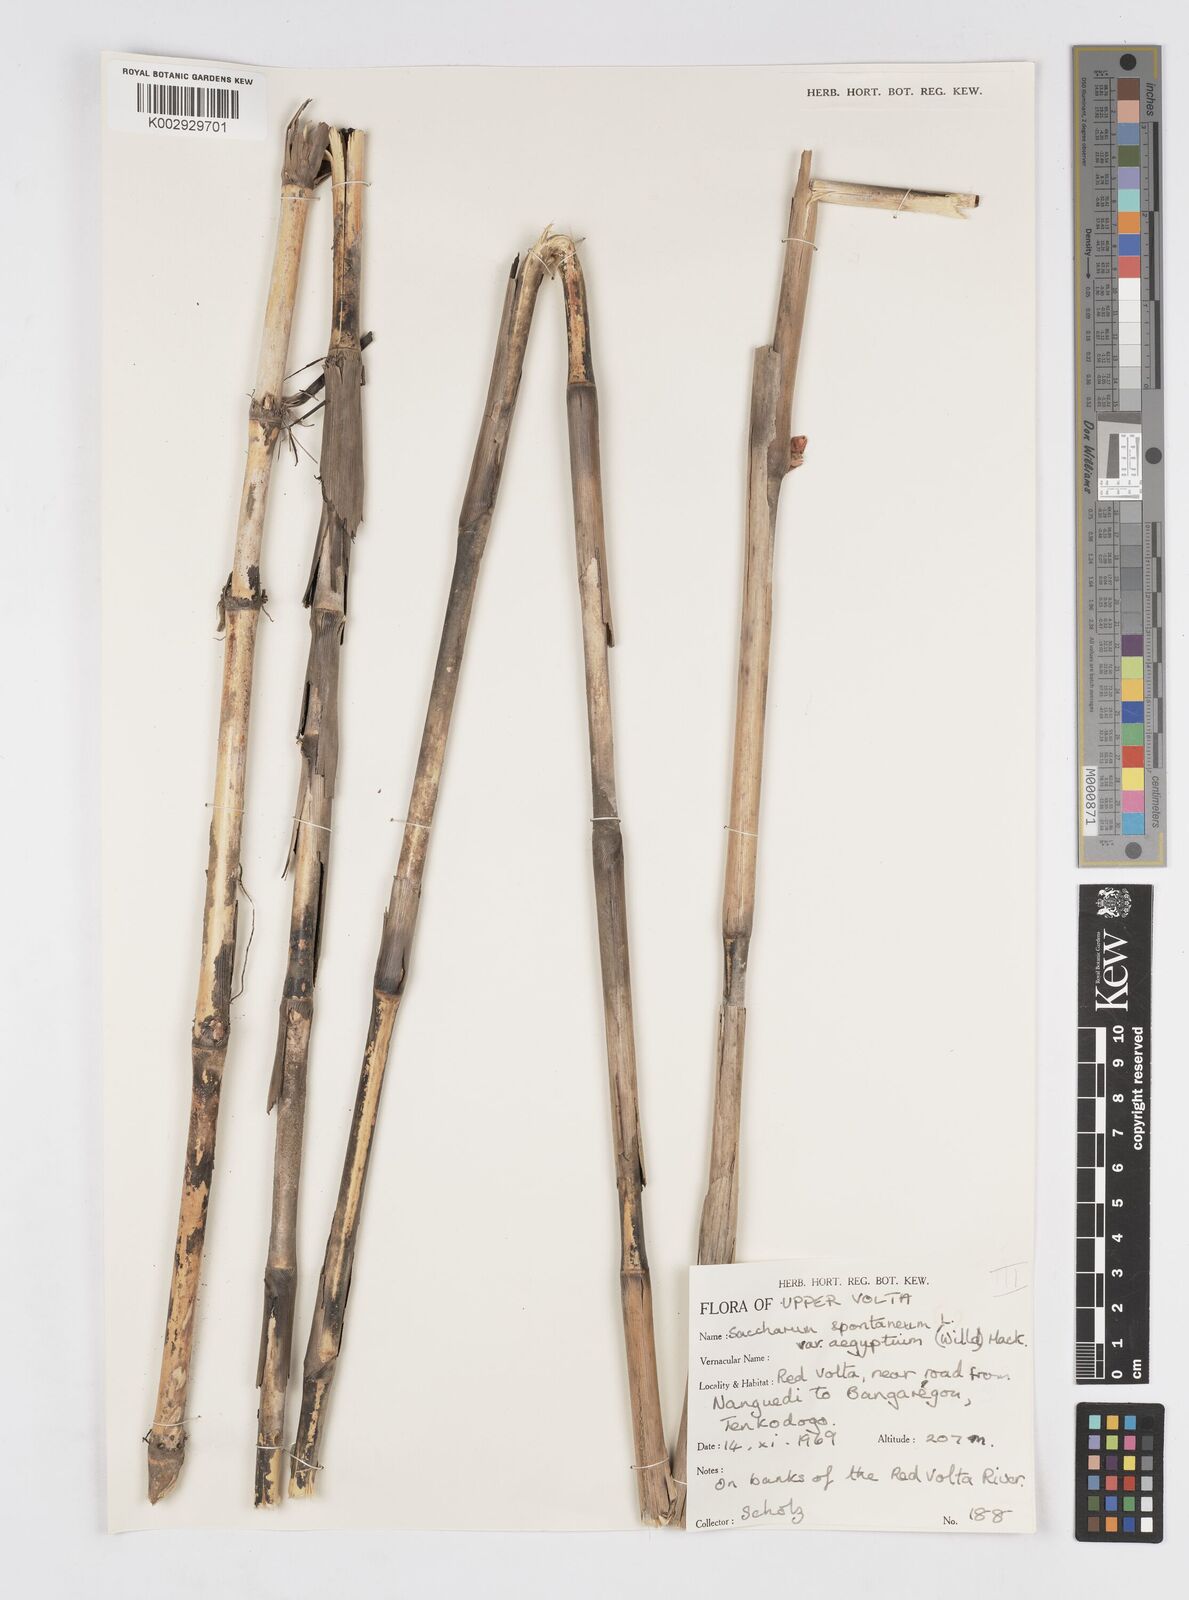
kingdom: Plantae
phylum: Tracheophyta
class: Liliopsida
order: Poales
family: Poaceae
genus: Saccharum
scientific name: Saccharum spontaneum
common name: Wild sugarcane
